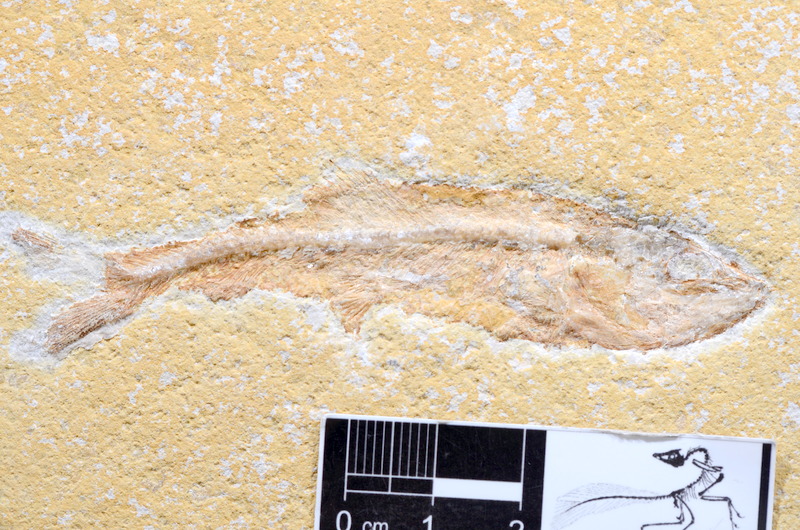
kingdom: Animalia
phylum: Chordata
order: Elopiformes
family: Anaethalionidae
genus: Anaethalion
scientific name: Anaethalion
